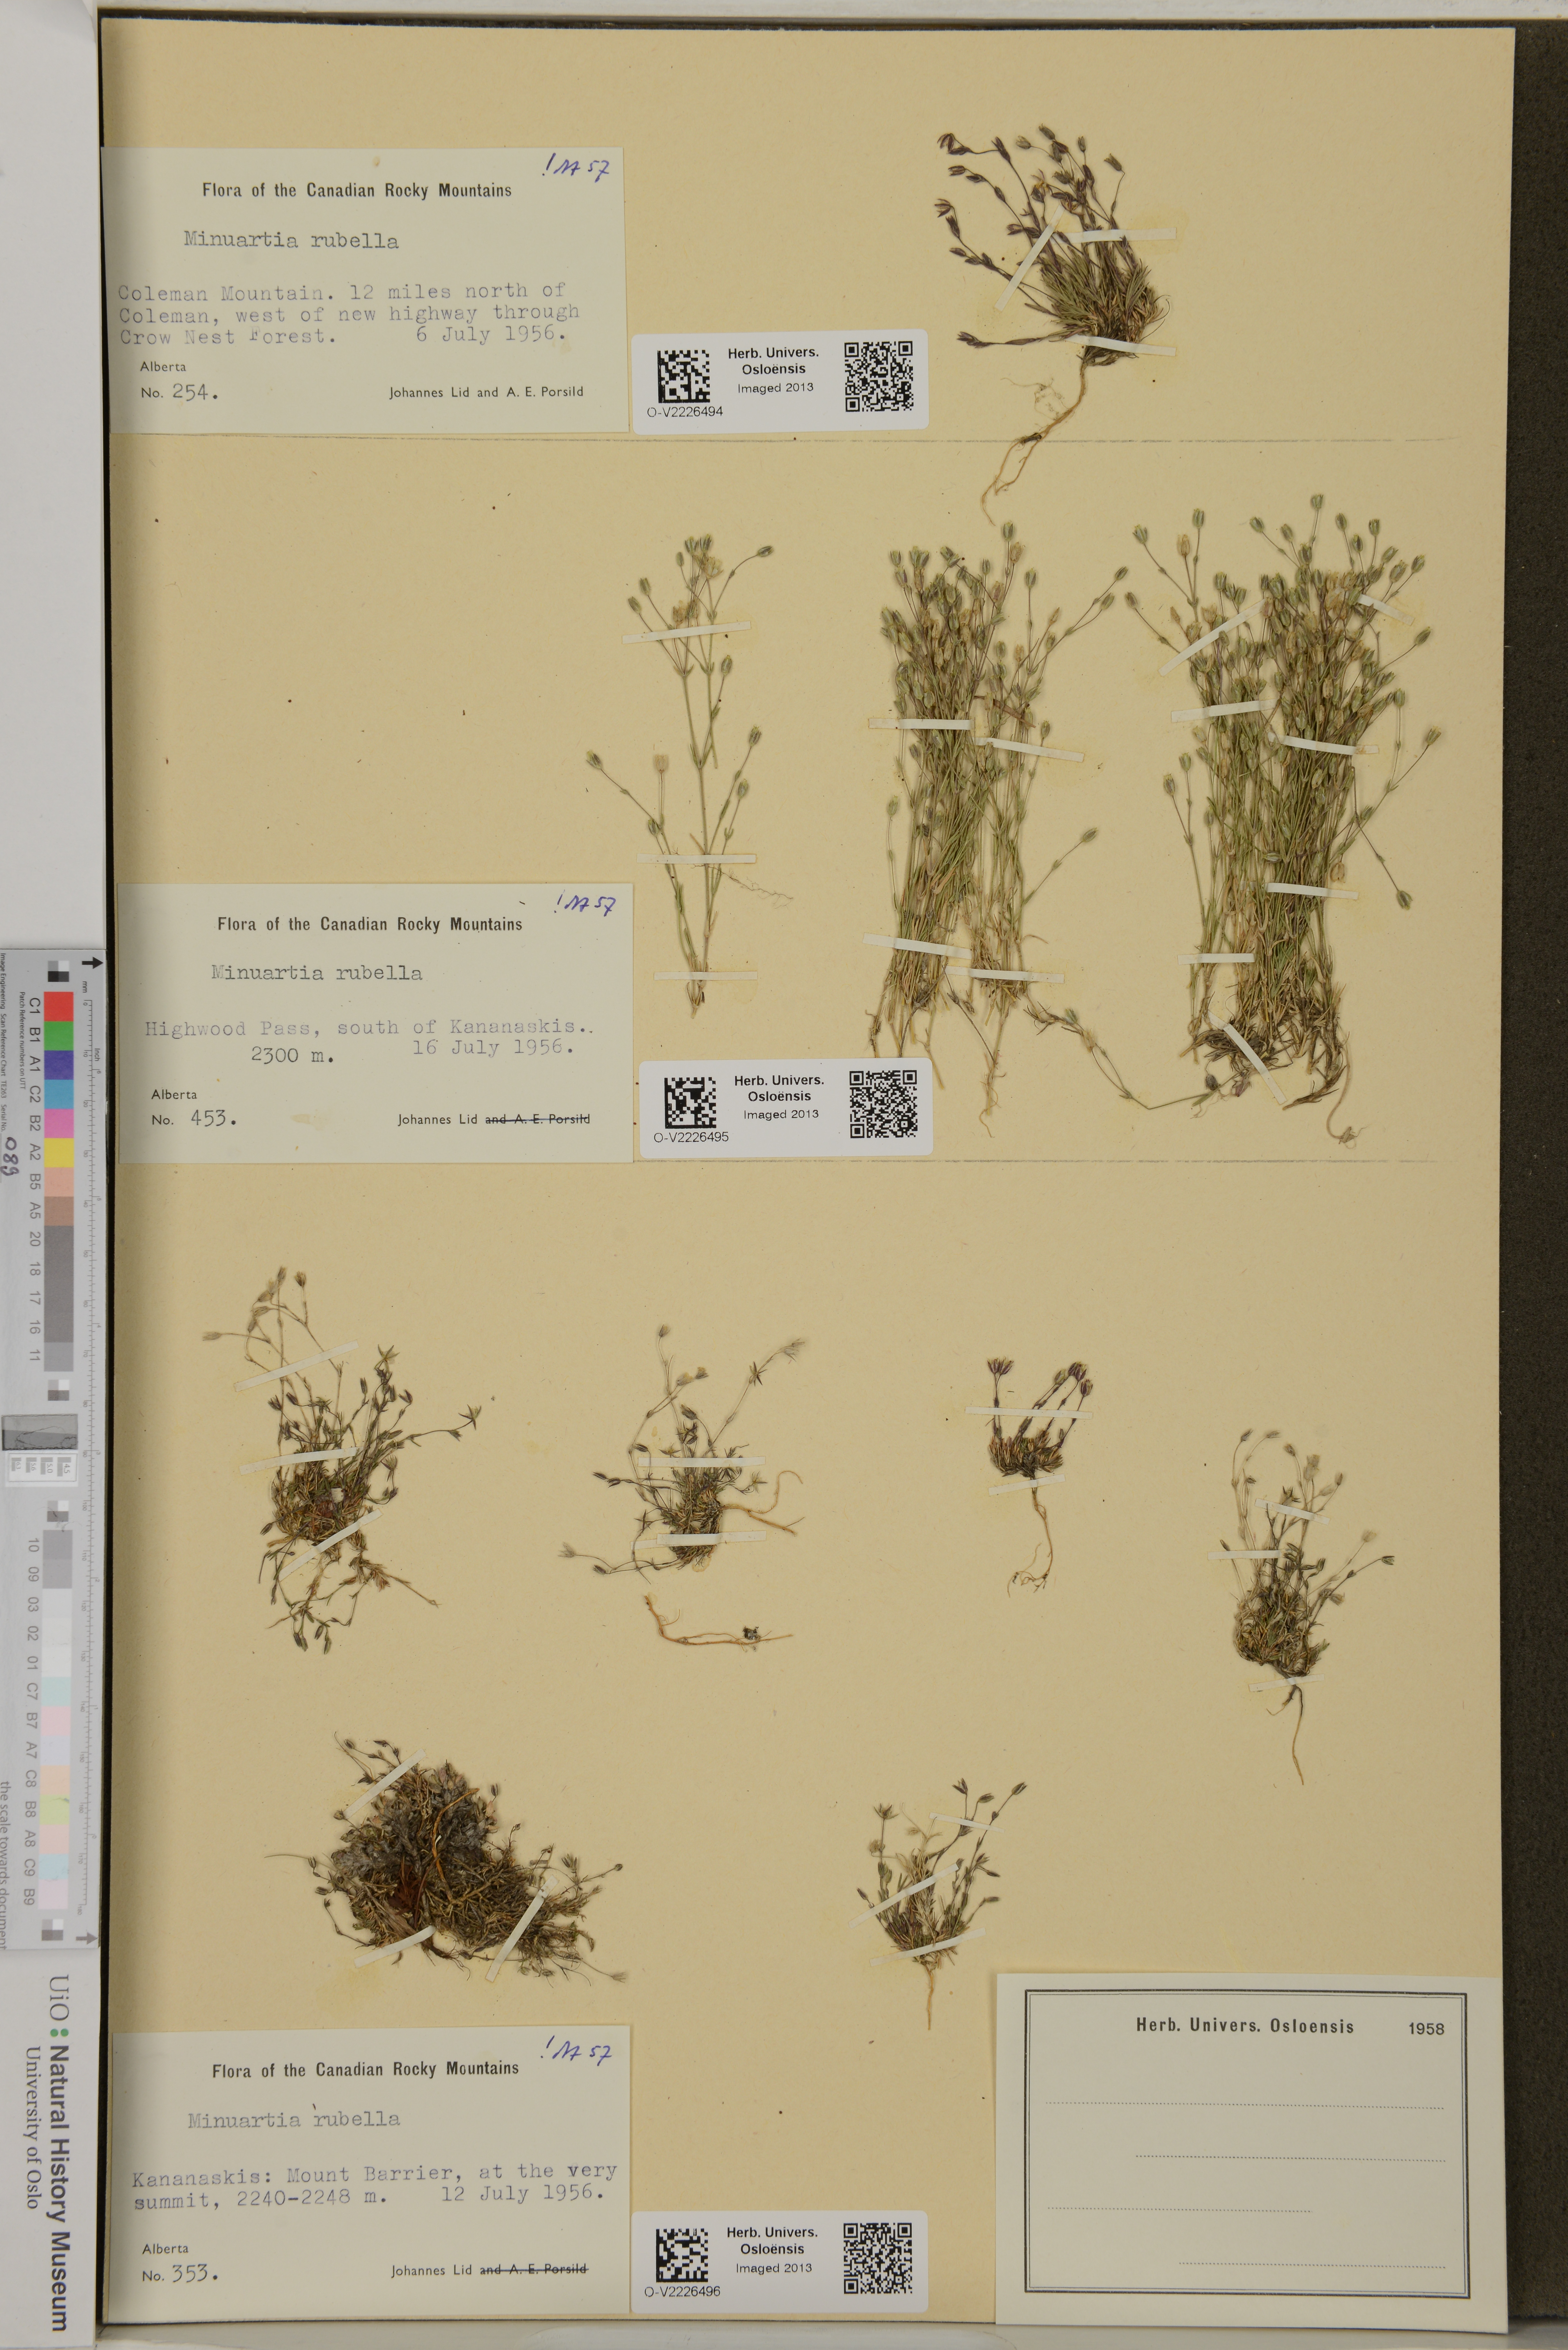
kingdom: Plantae
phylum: Tracheophyta
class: Magnoliopsida
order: Caryophyllales
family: Caryophyllaceae
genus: Sabulina
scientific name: Sabulina rubella
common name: Beautiful sandwort
